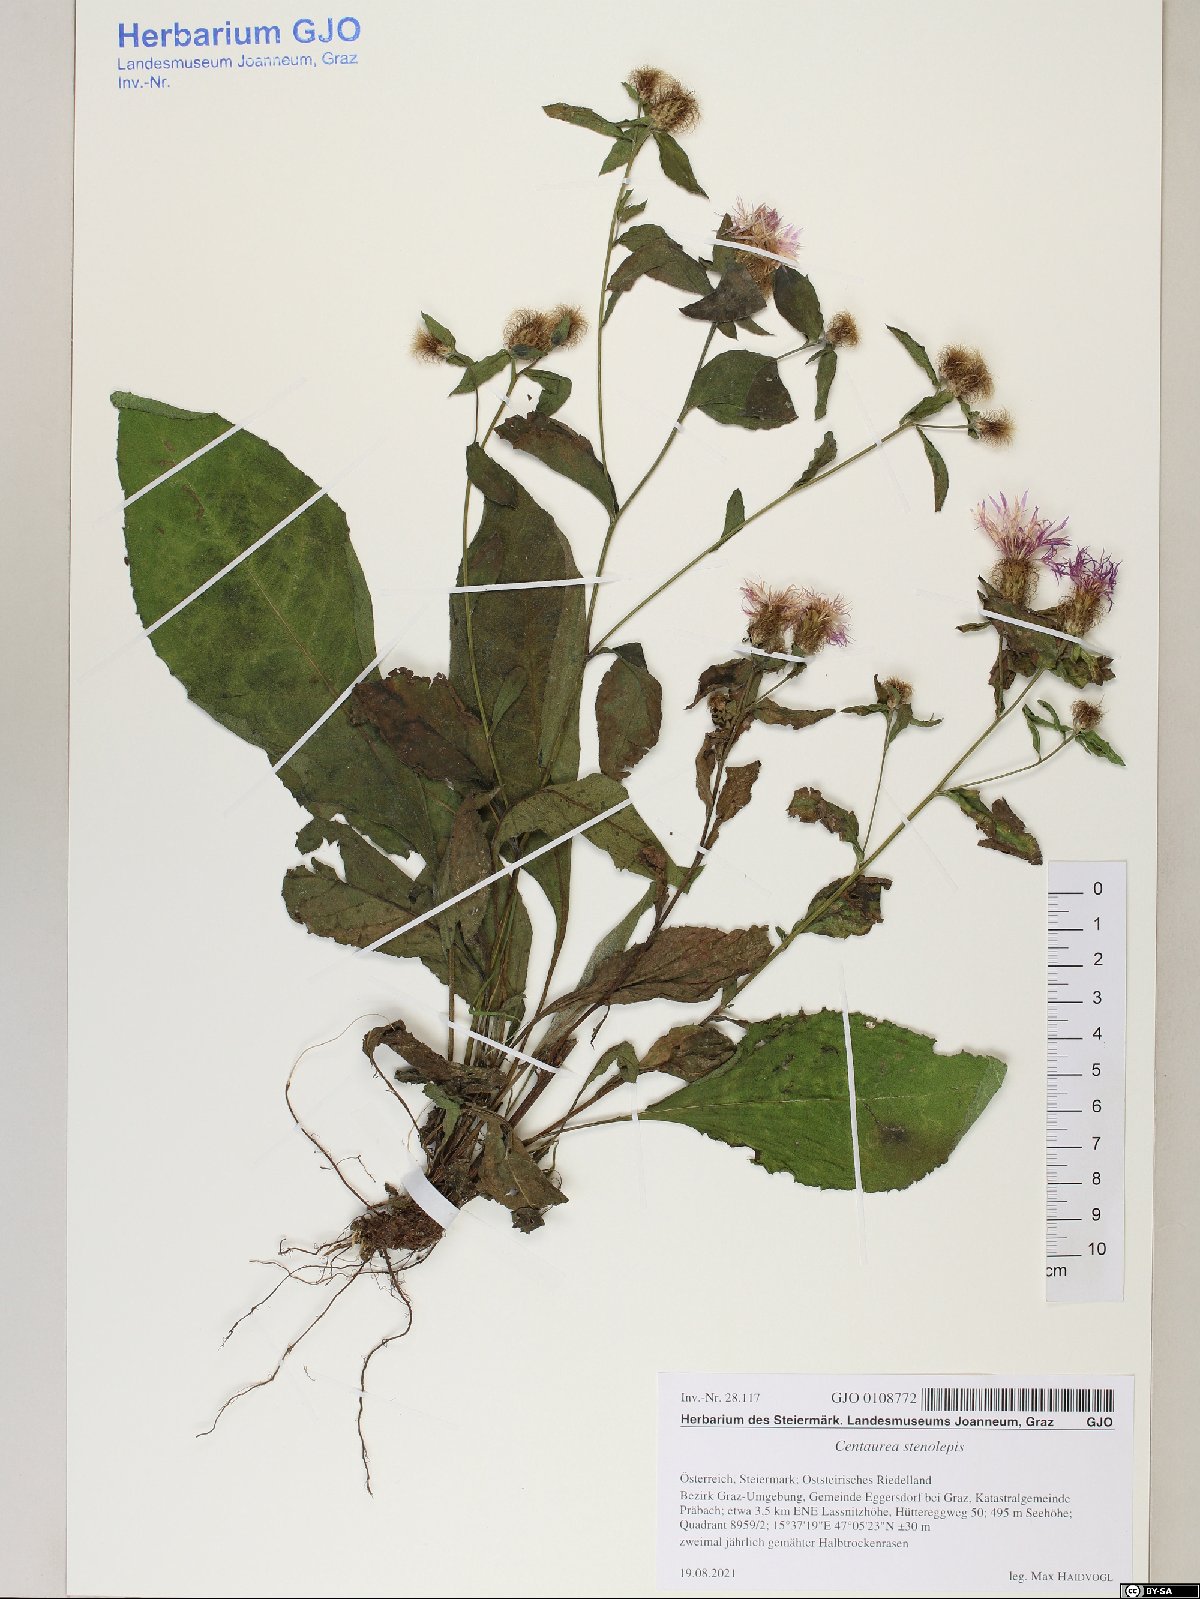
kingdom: Plantae
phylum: Tracheophyta
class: Magnoliopsida
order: Asterales
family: Asteraceae
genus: Centaurea
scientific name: Centaurea stenolepis
